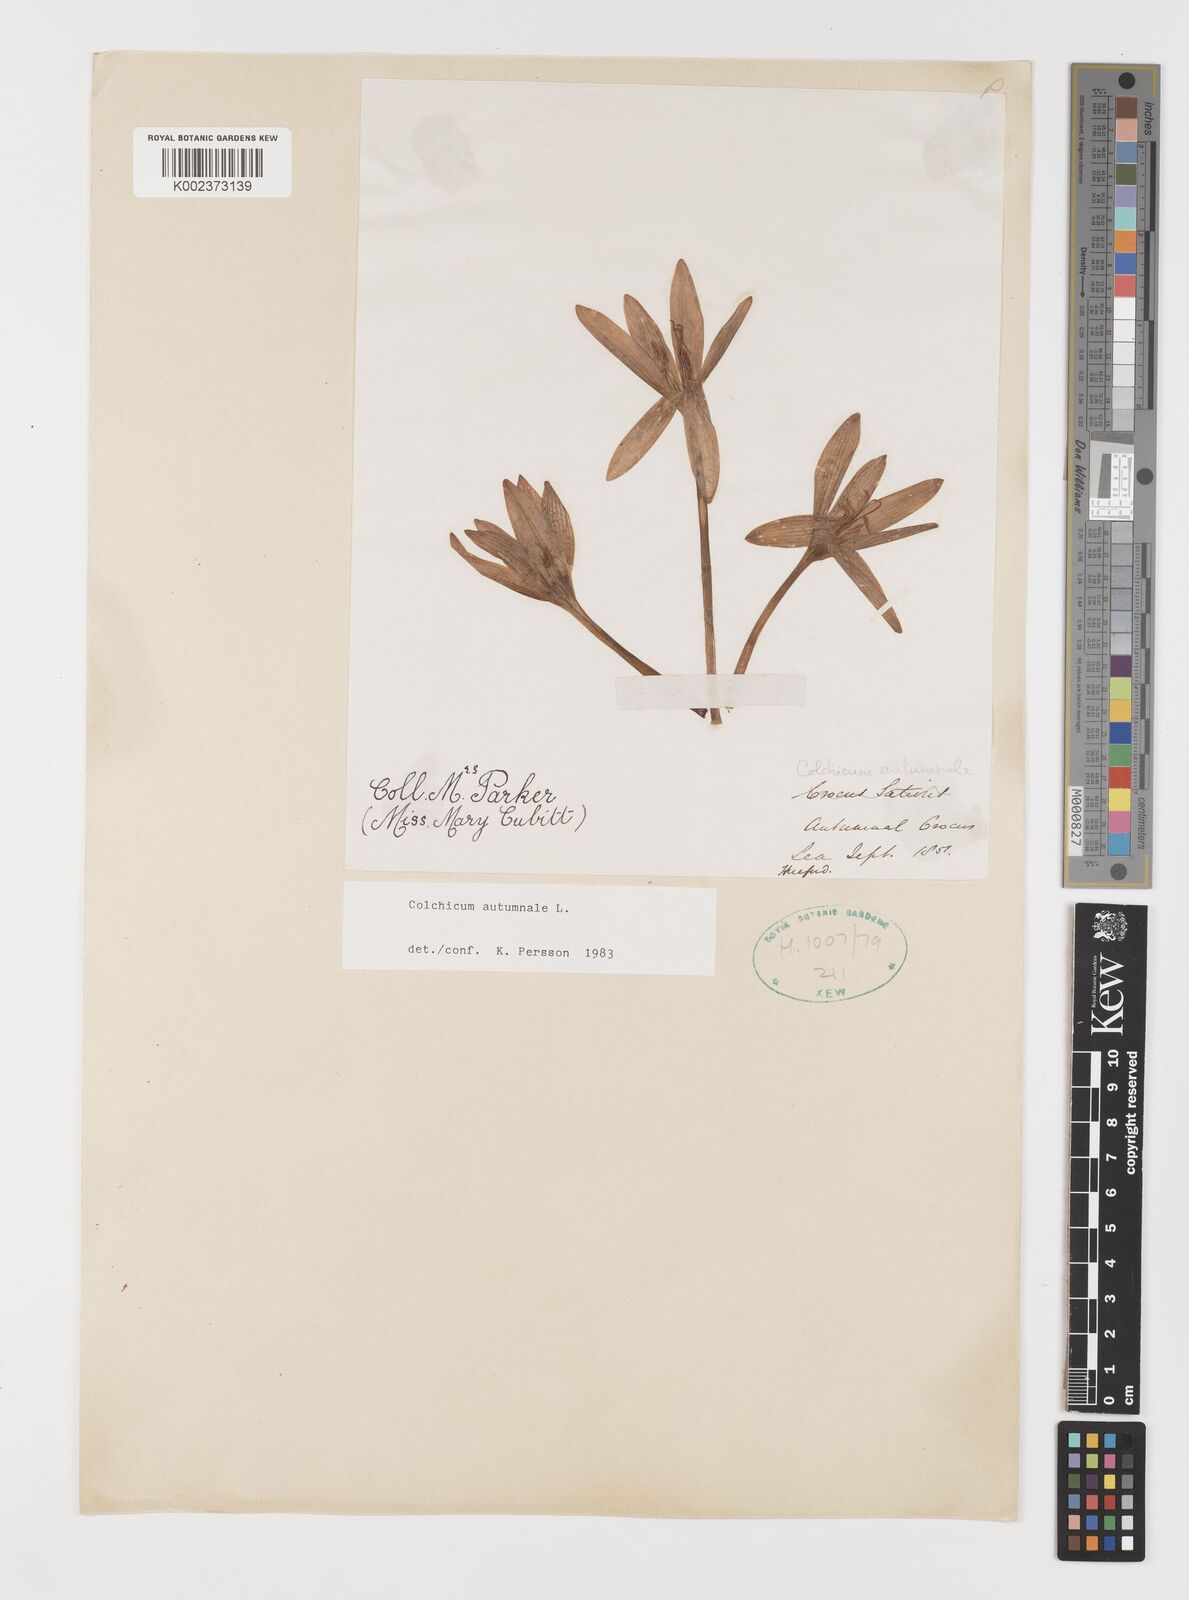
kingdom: Plantae
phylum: Tracheophyta
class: Liliopsida
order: Liliales
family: Colchicaceae
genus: Colchicum
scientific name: Colchicum autumnale
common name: Autumn crocus
